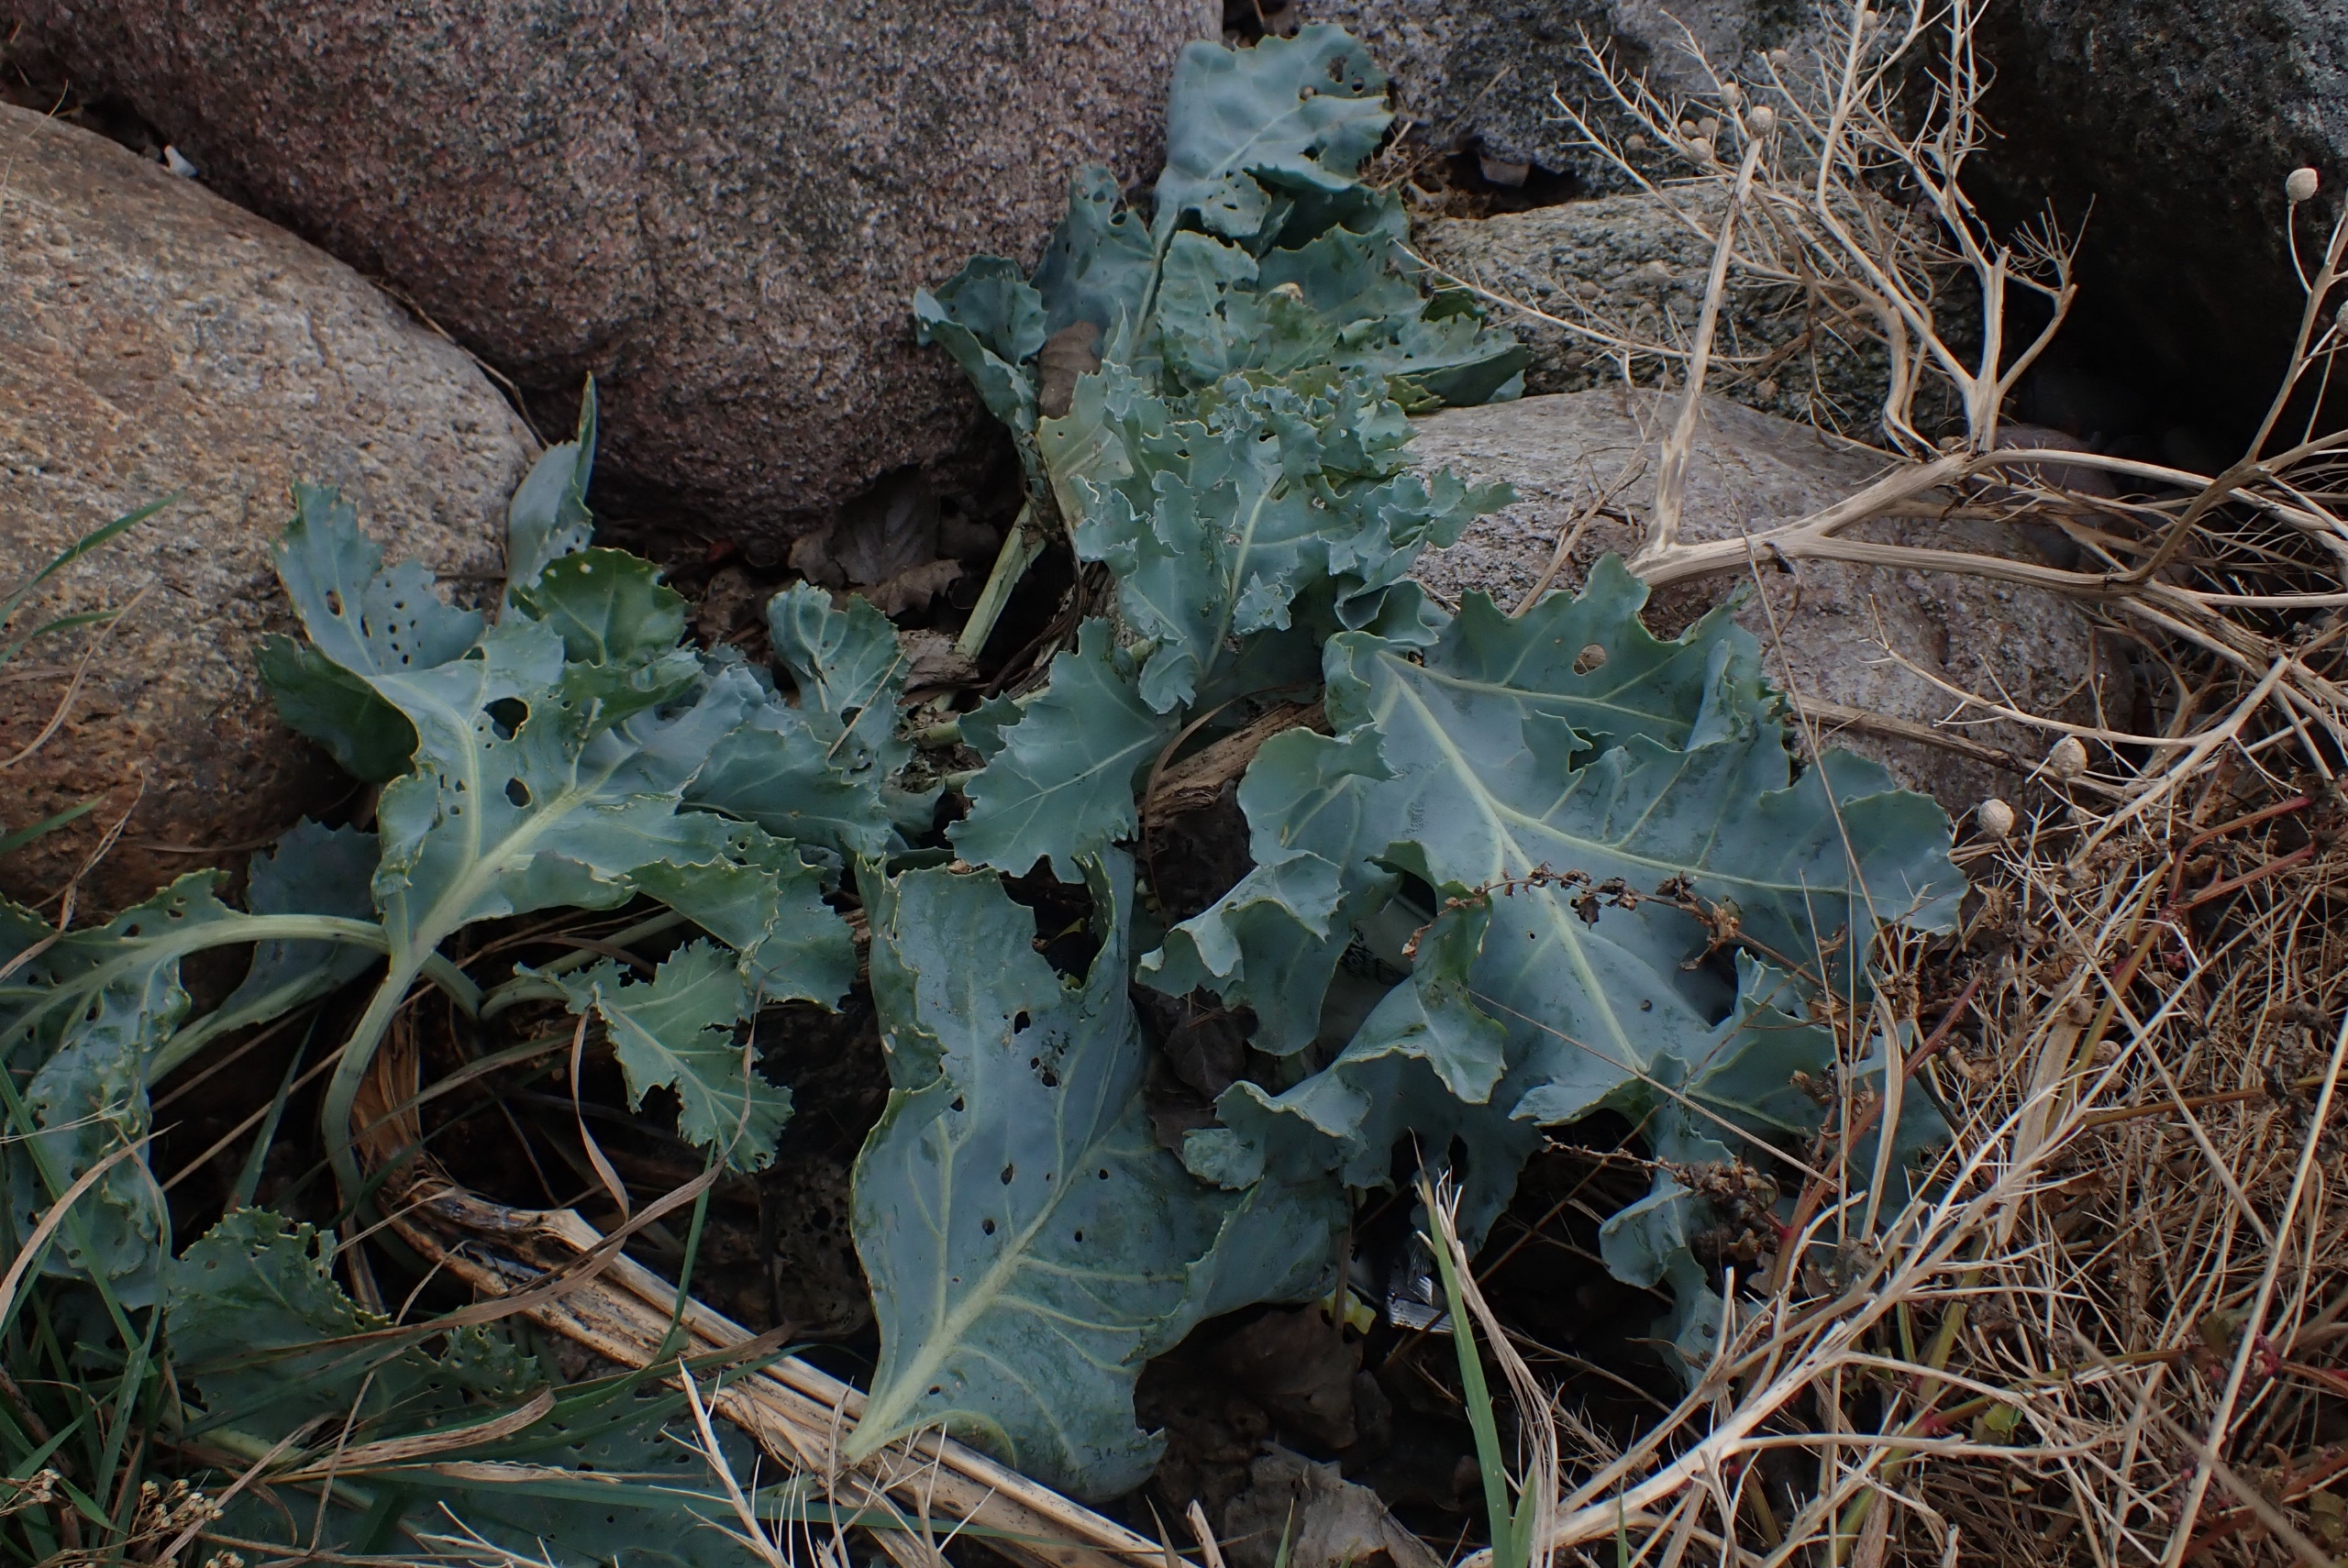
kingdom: Plantae
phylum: Tracheophyta
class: Magnoliopsida
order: Brassicales
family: Brassicaceae
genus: Crambe
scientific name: Crambe maritima
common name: Strandkål
